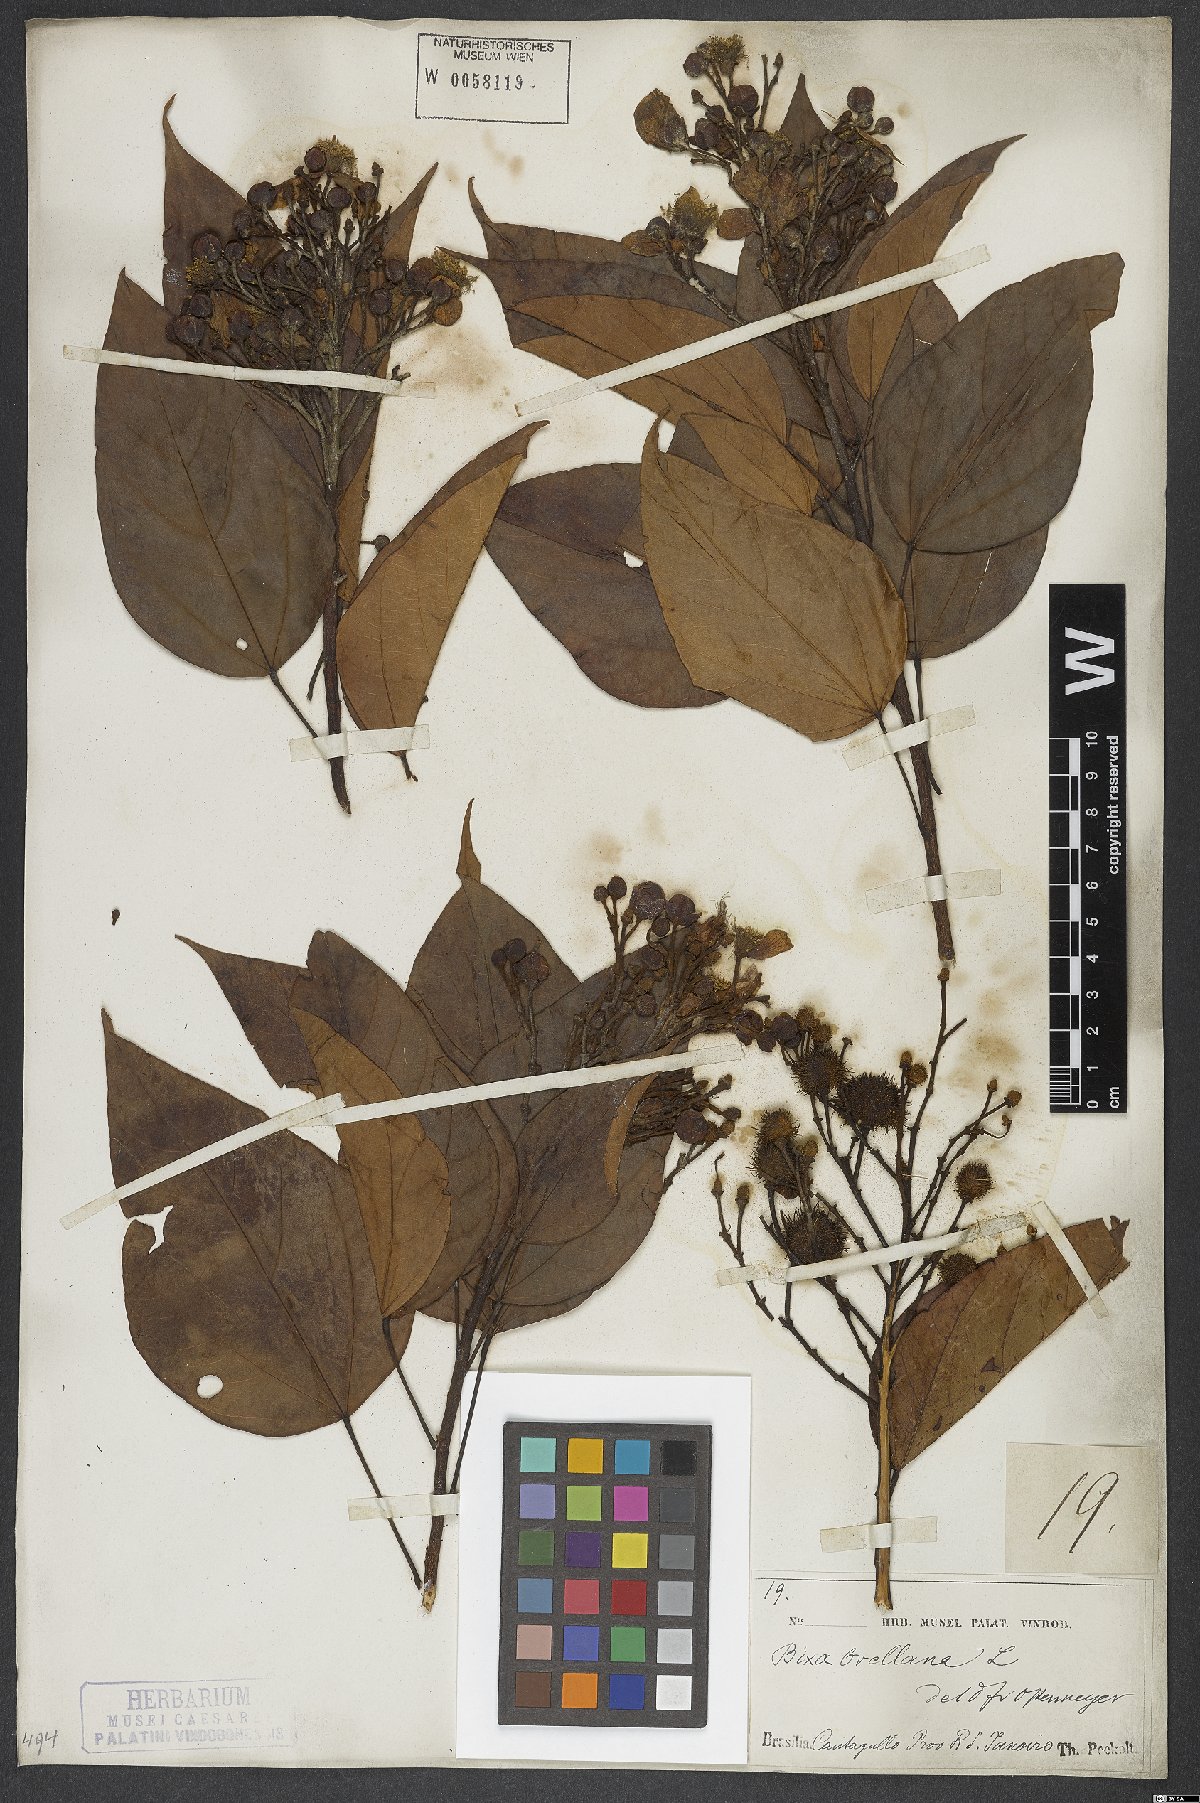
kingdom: Plantae
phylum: Tracheophyta
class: Magnoliopsida
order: Malvales
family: Bixaceae
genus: Bixa
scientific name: Bixa orellana
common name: Lipsticktree
